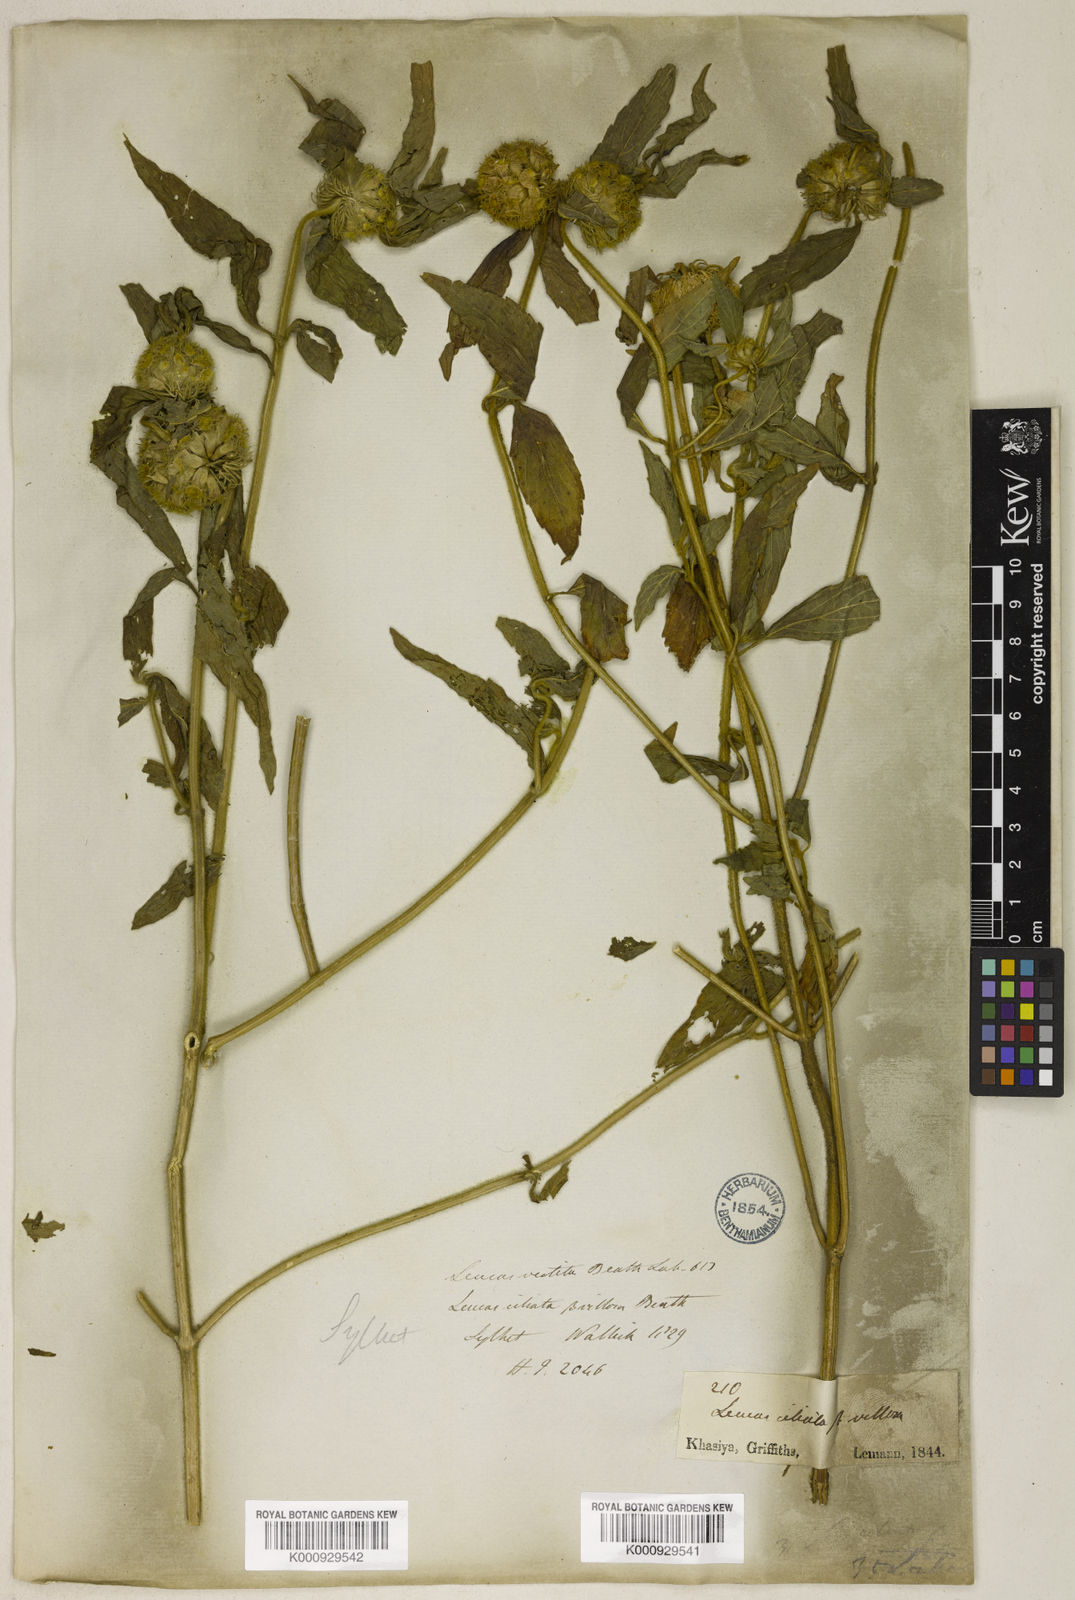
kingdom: Plantae
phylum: Tracheophyta
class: Magnoliopsida
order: Lamiales
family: Lamiaceae
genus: Leucas
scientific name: Leucas ciliata
